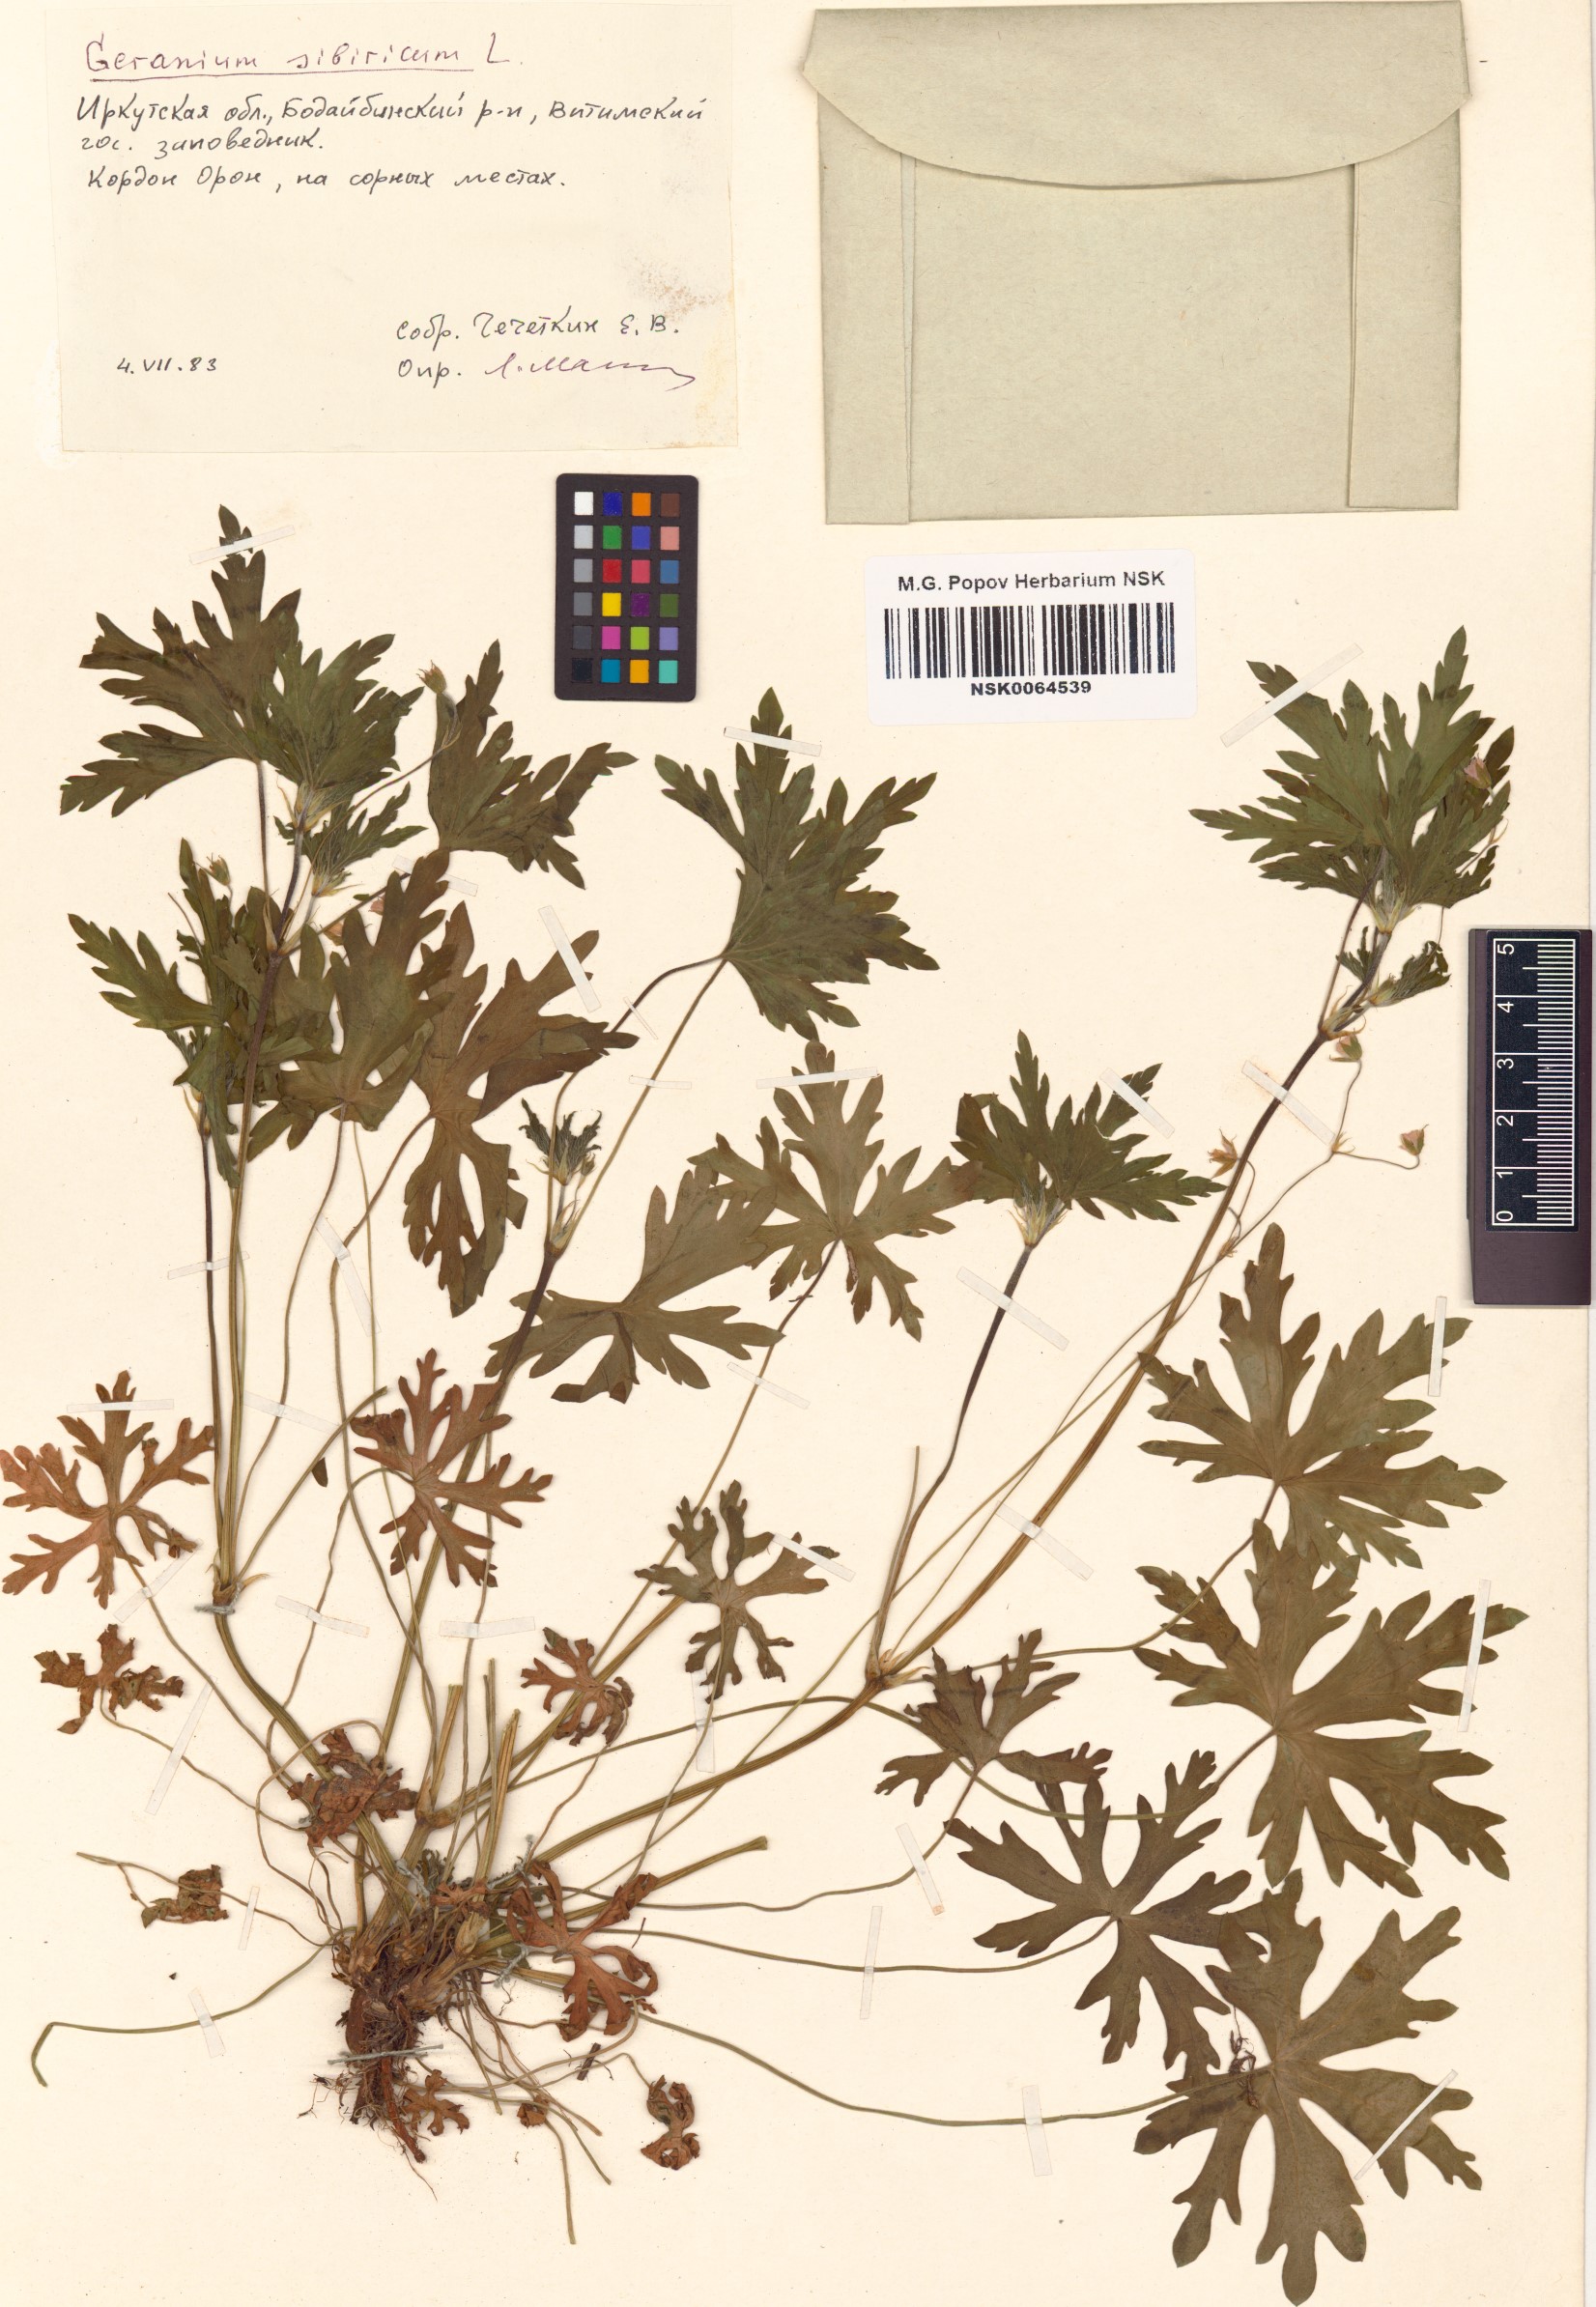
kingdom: Plantae
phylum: Tracheophyta
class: Magnoliopsida
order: Geraniales
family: Geraniaceae
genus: Geranium
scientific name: Geranium sibiricum
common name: Siberian crane's-bill
